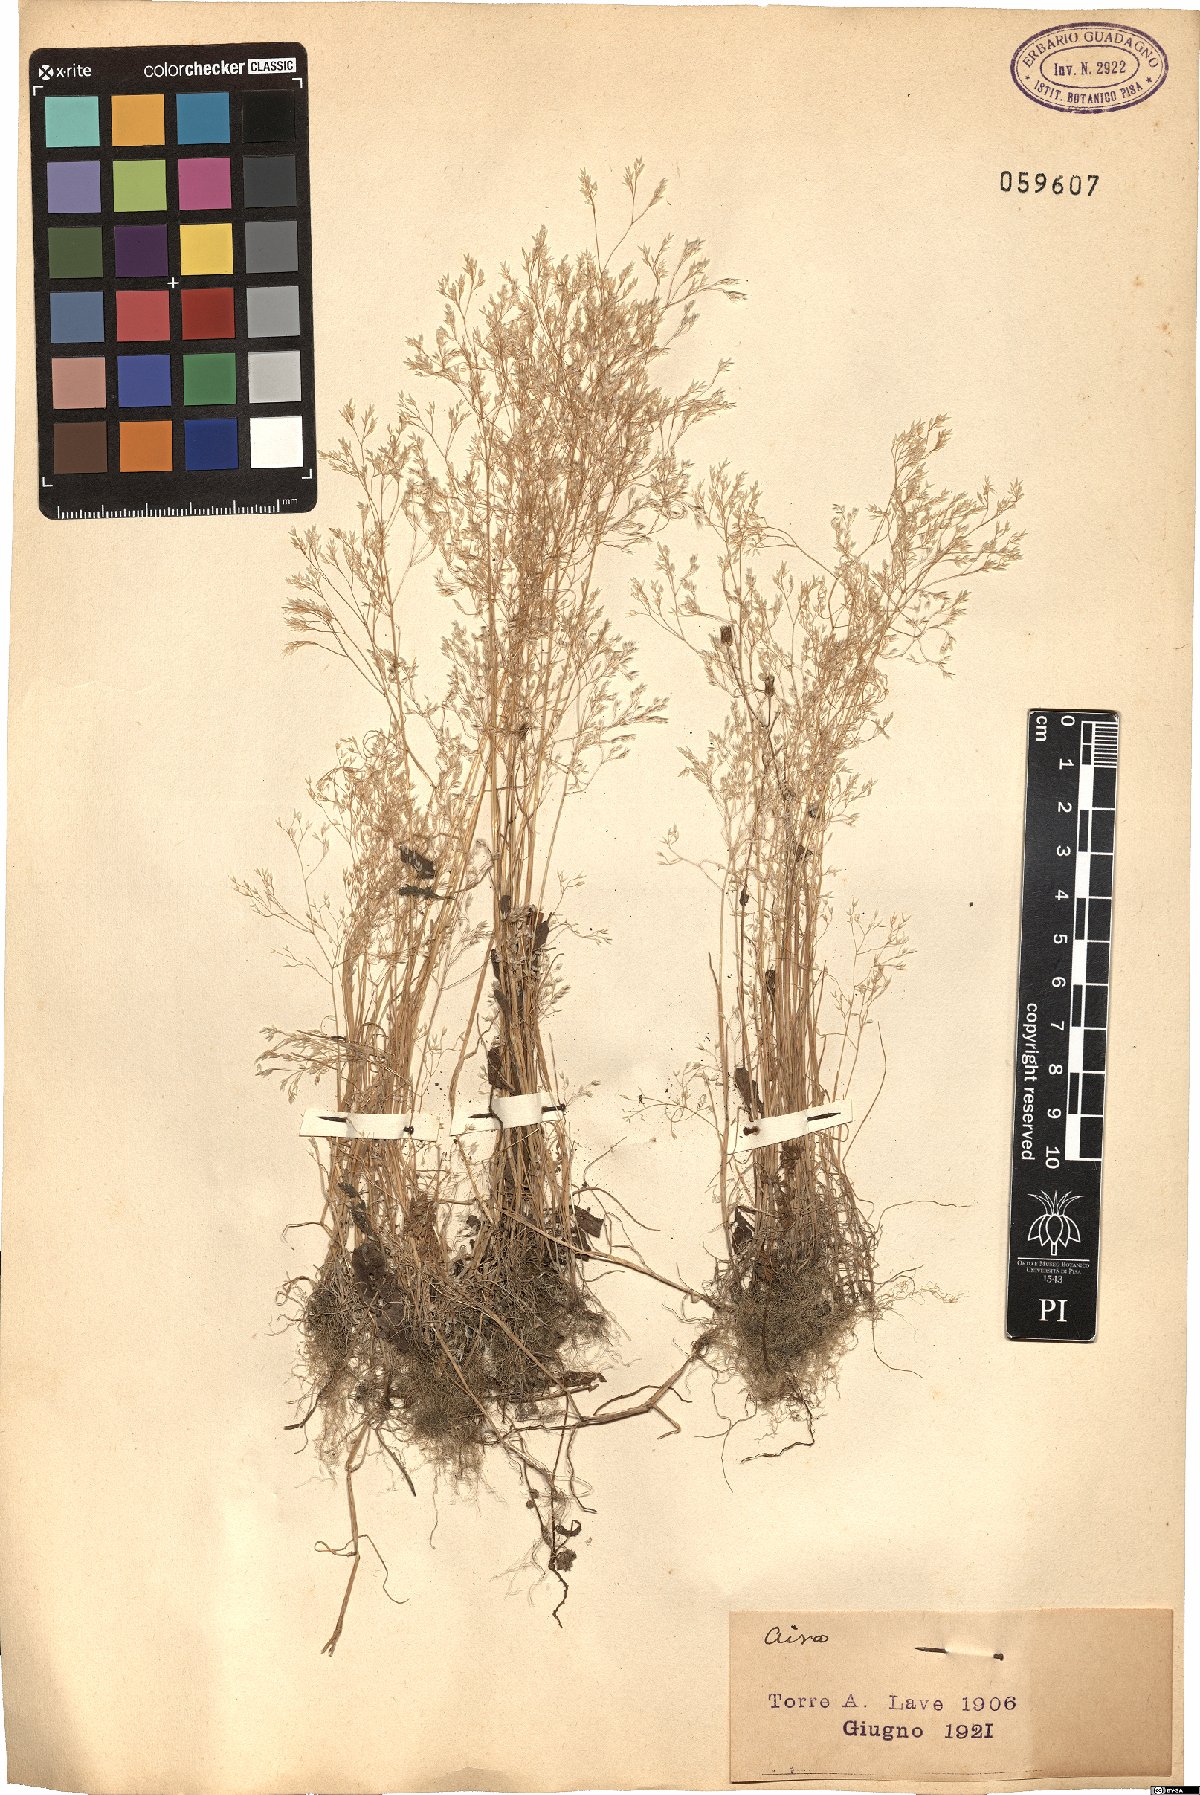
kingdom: Plantae
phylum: Tracheophyta
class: Liliopsida
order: Poales
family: Poaceae
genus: Aira
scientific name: Aira
